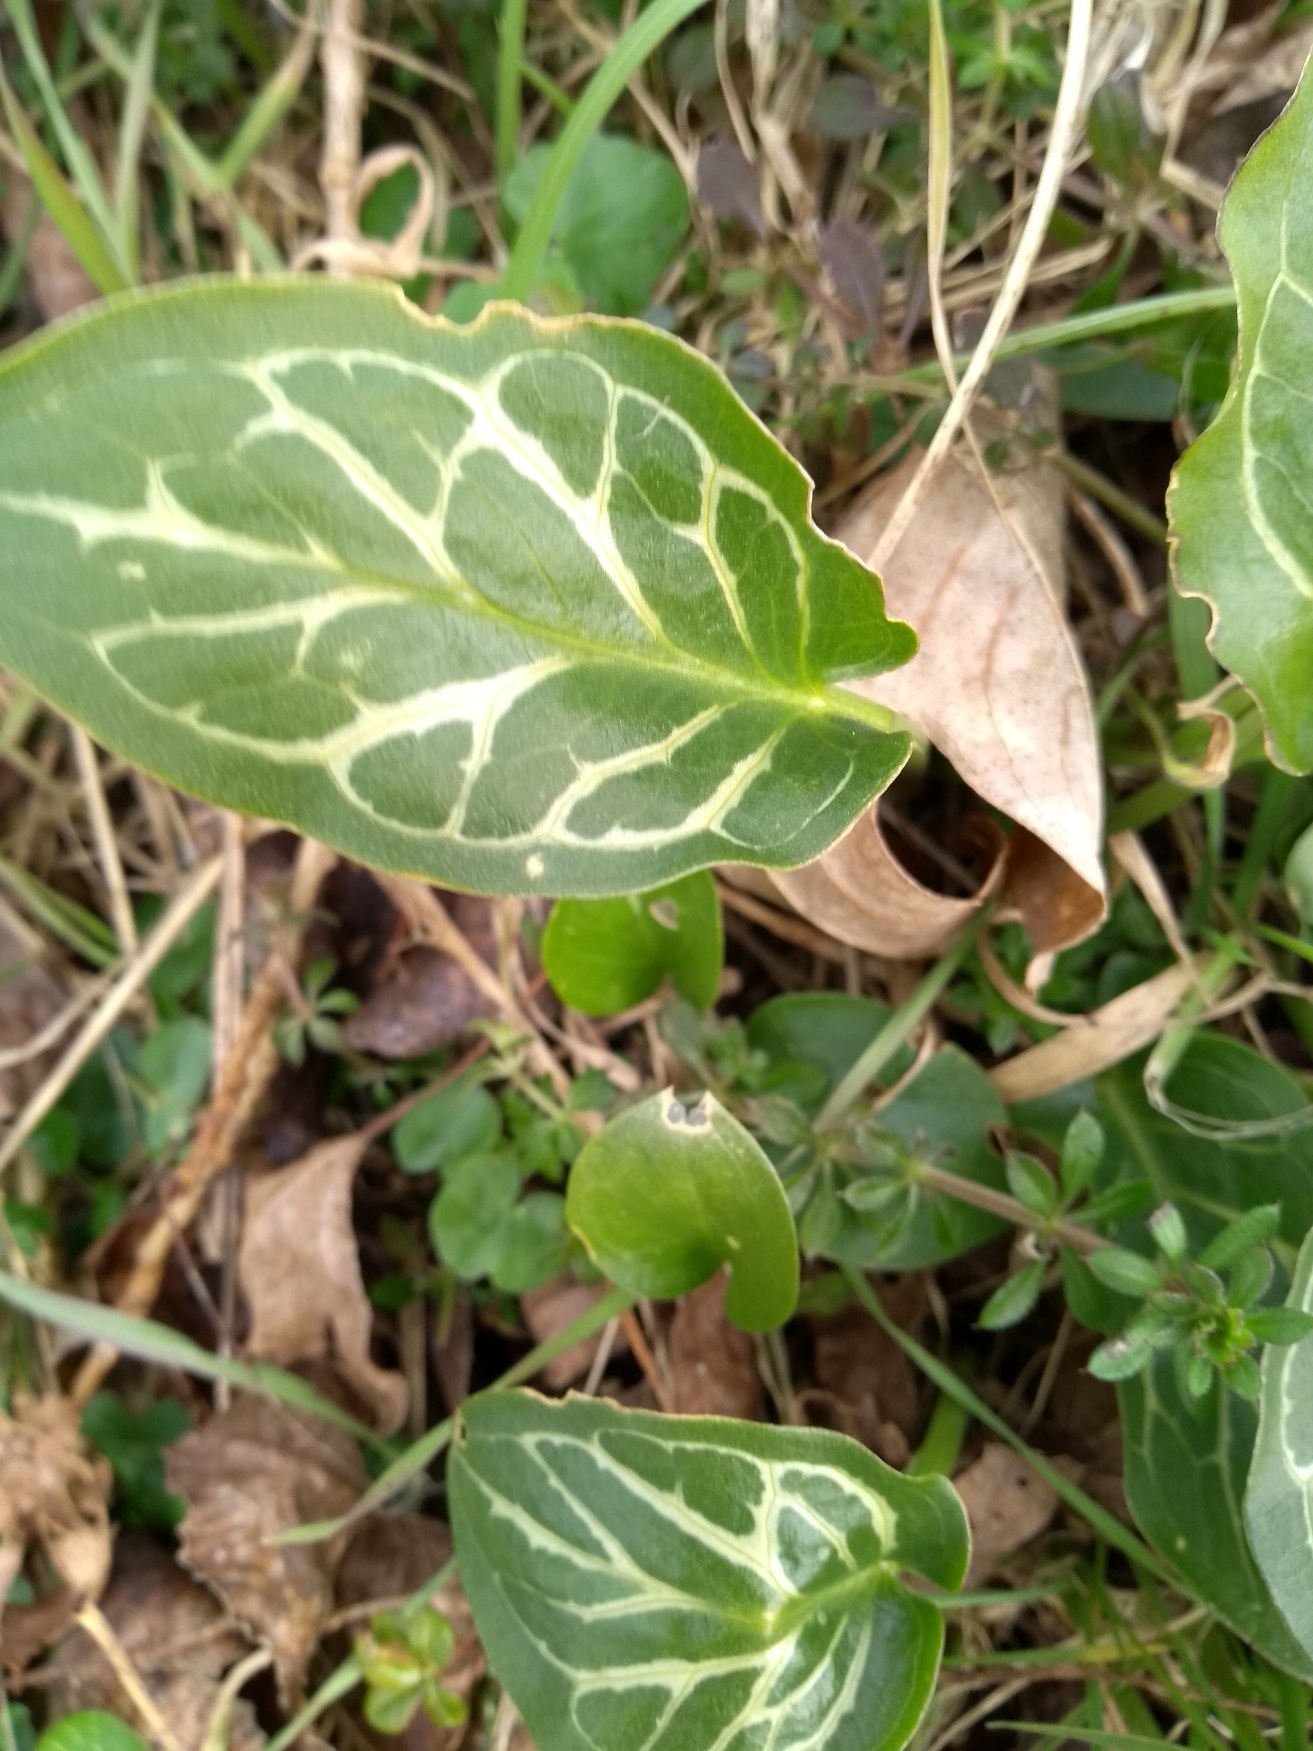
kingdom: Plantae
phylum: Tracheophyta
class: Liliopsida
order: Alismatales
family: Araceae
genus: Arum
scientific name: Arum italicum
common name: Italiensk arum
